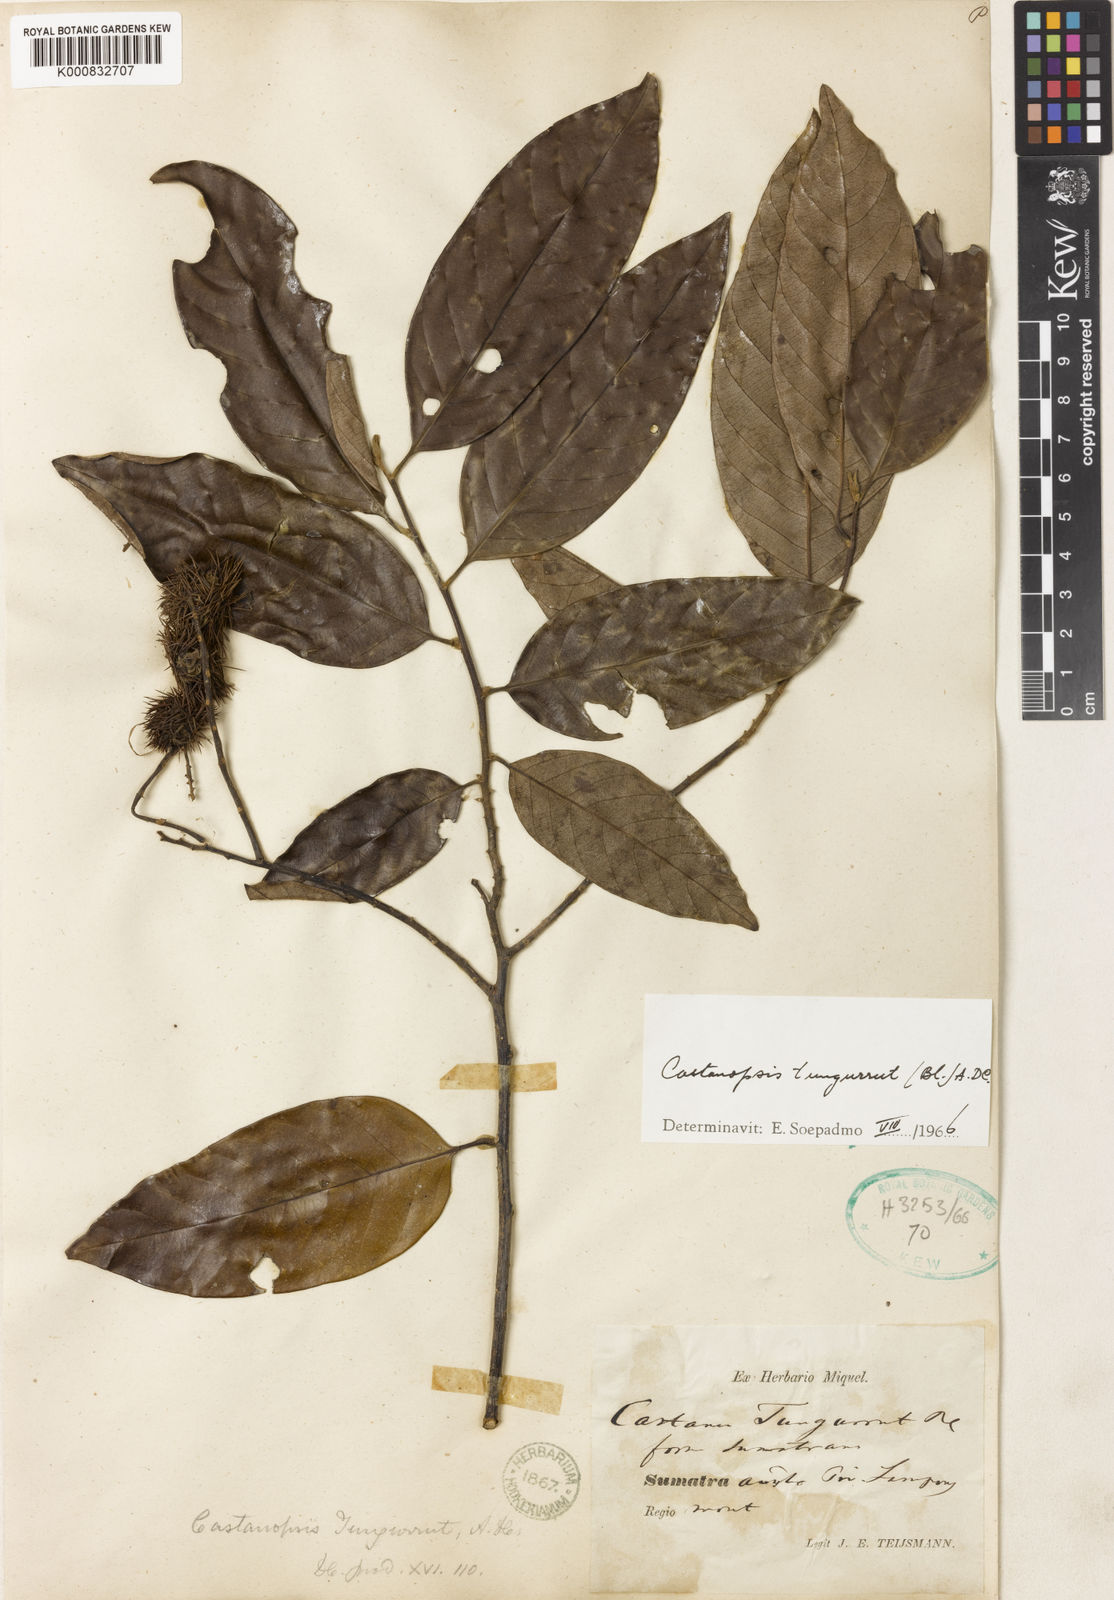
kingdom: Plantae
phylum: Tracheophyta
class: Magnoliopsida
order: Fagales
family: Fagaceae
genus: Castanopsis
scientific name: Castanopsis tungurrut
